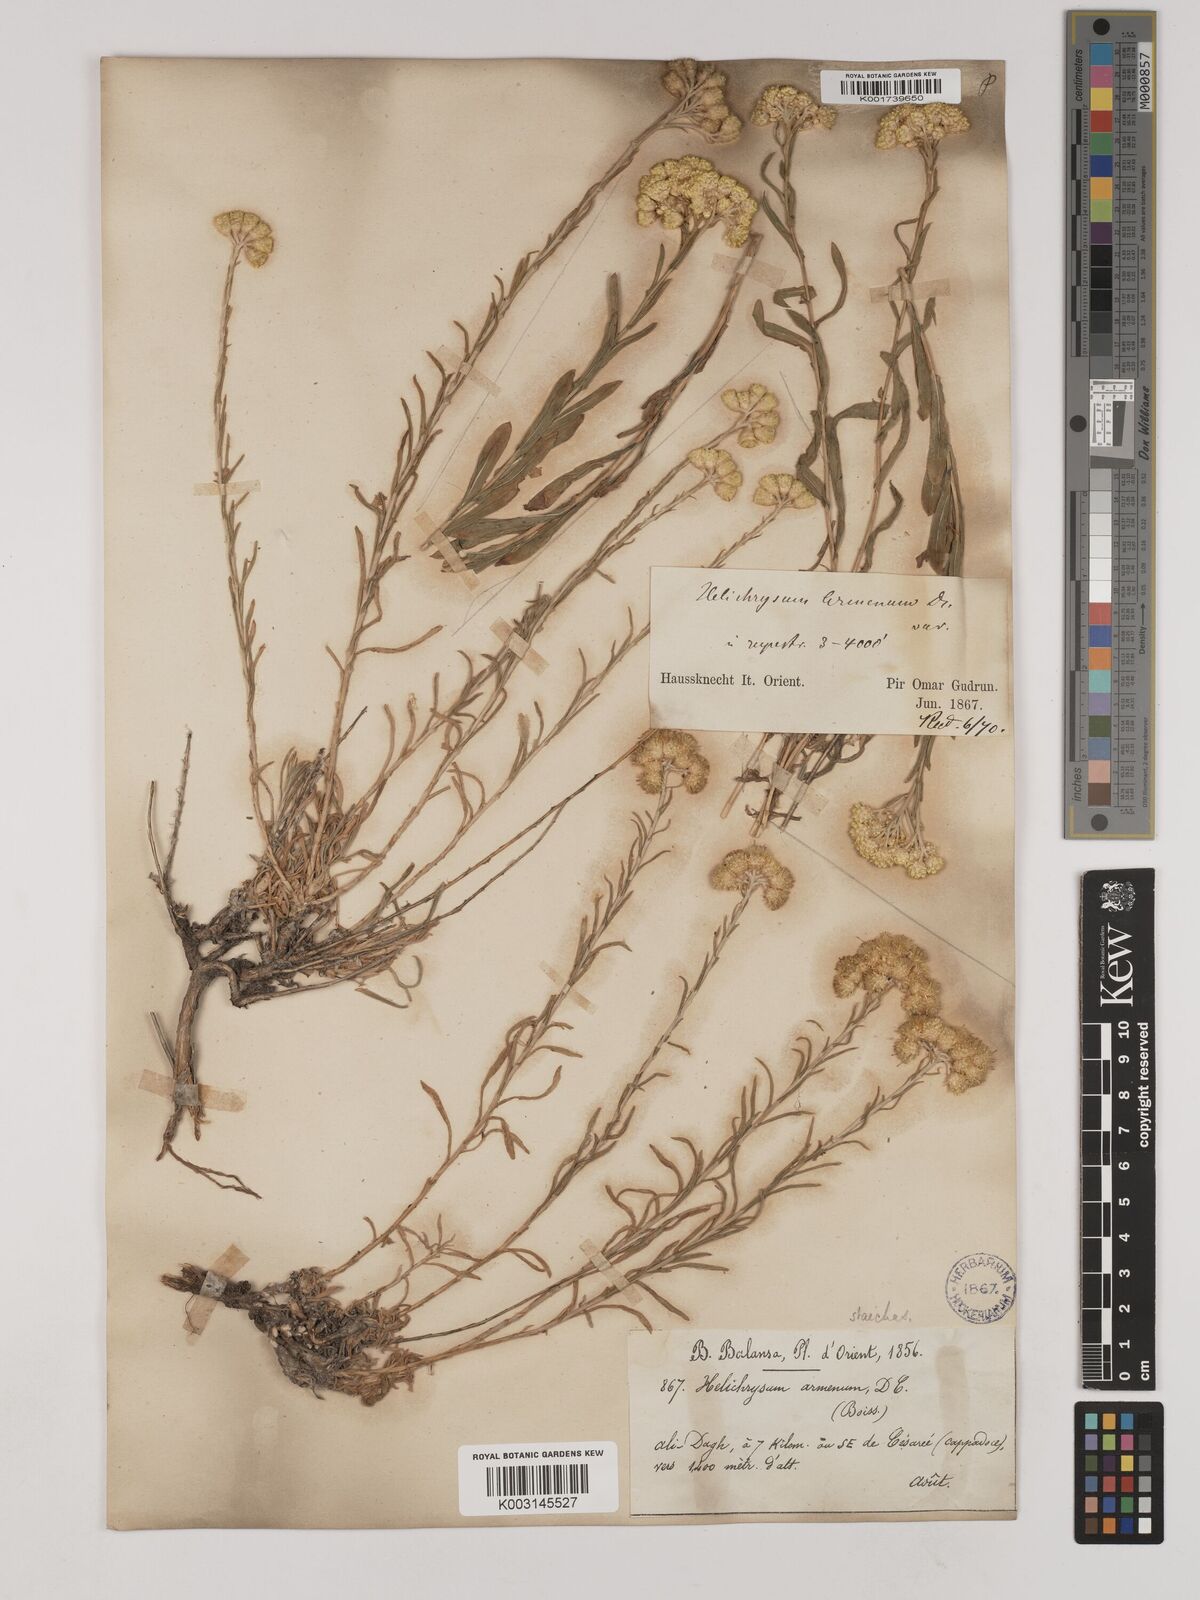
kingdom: Plantae
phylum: Tracheophyta
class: Magnoliopsida
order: Asterales
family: Asteraceae
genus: Helichrysum
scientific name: Helichrysum armenium
